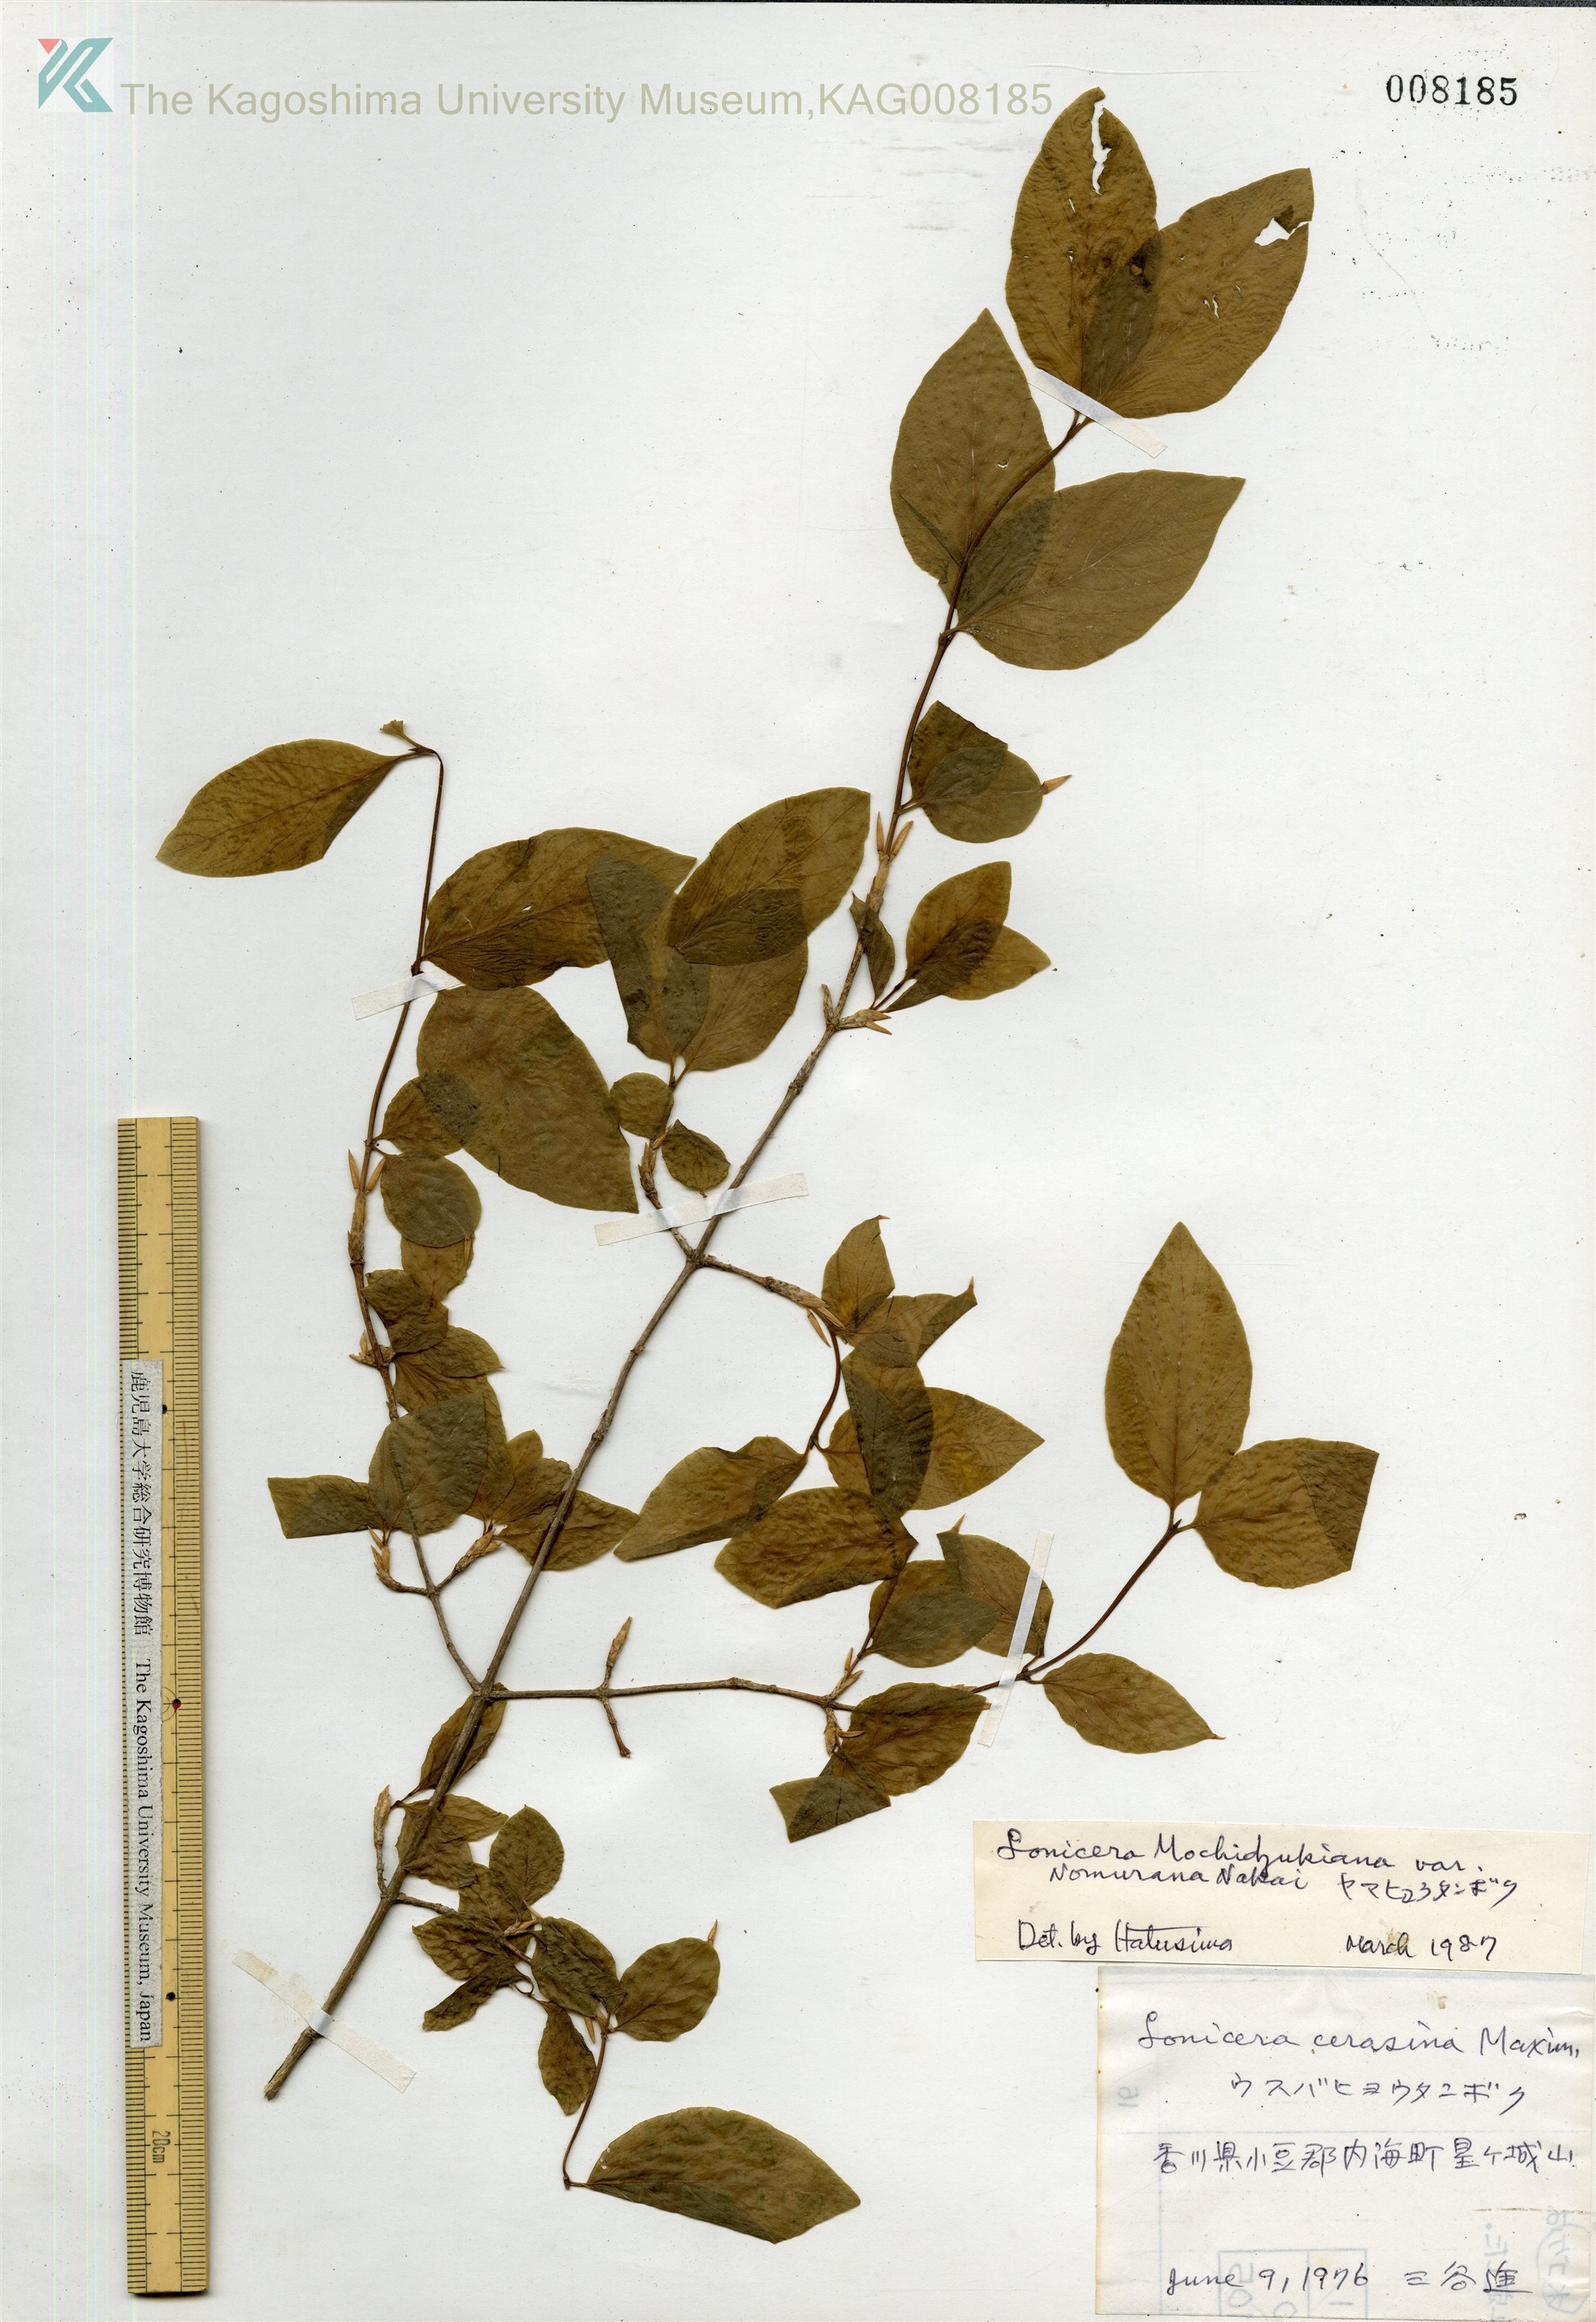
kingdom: Plantae
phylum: Tracheophyta
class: Magnoliopsida
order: Dipsacales
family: Caprifoliaceae
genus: Lonicera
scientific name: Lonicera subhispida
